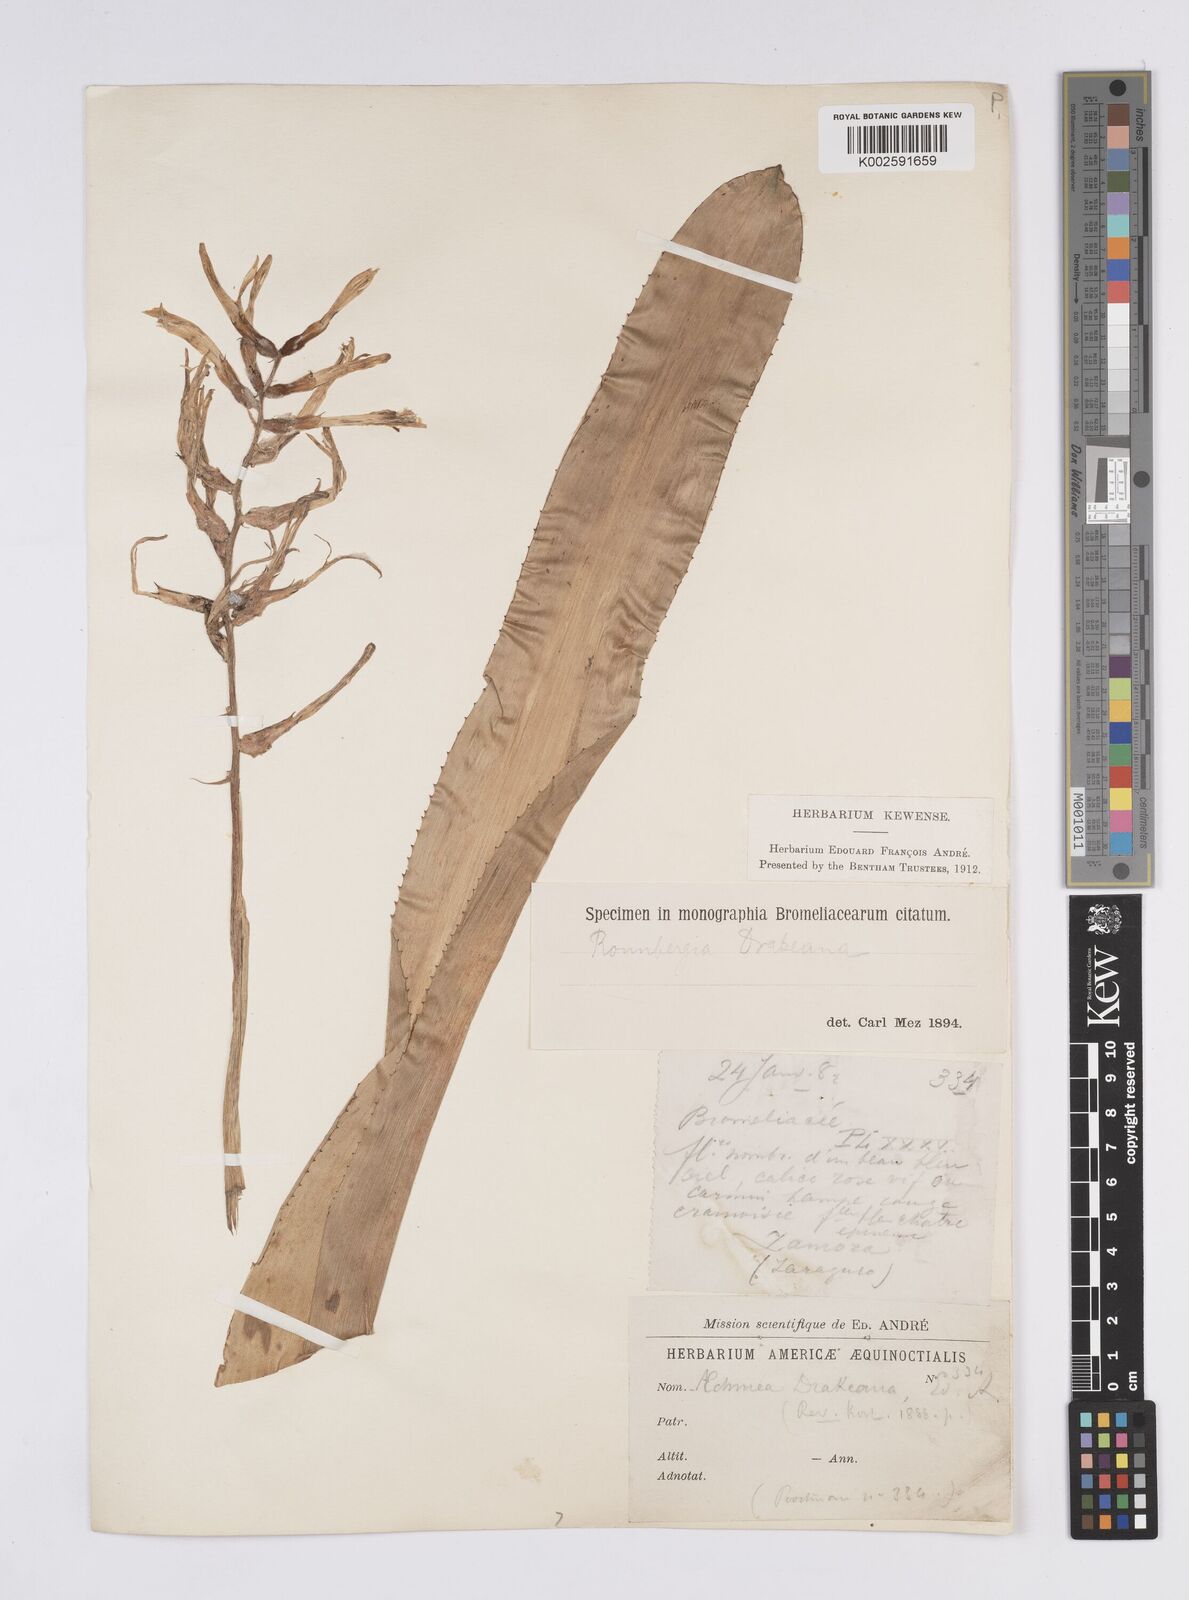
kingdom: Plantae
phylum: Tracheophyta
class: Liliopsida
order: Poales
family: Bromeliaceae
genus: Ronnbergia
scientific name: Ronnbergia drakeana
